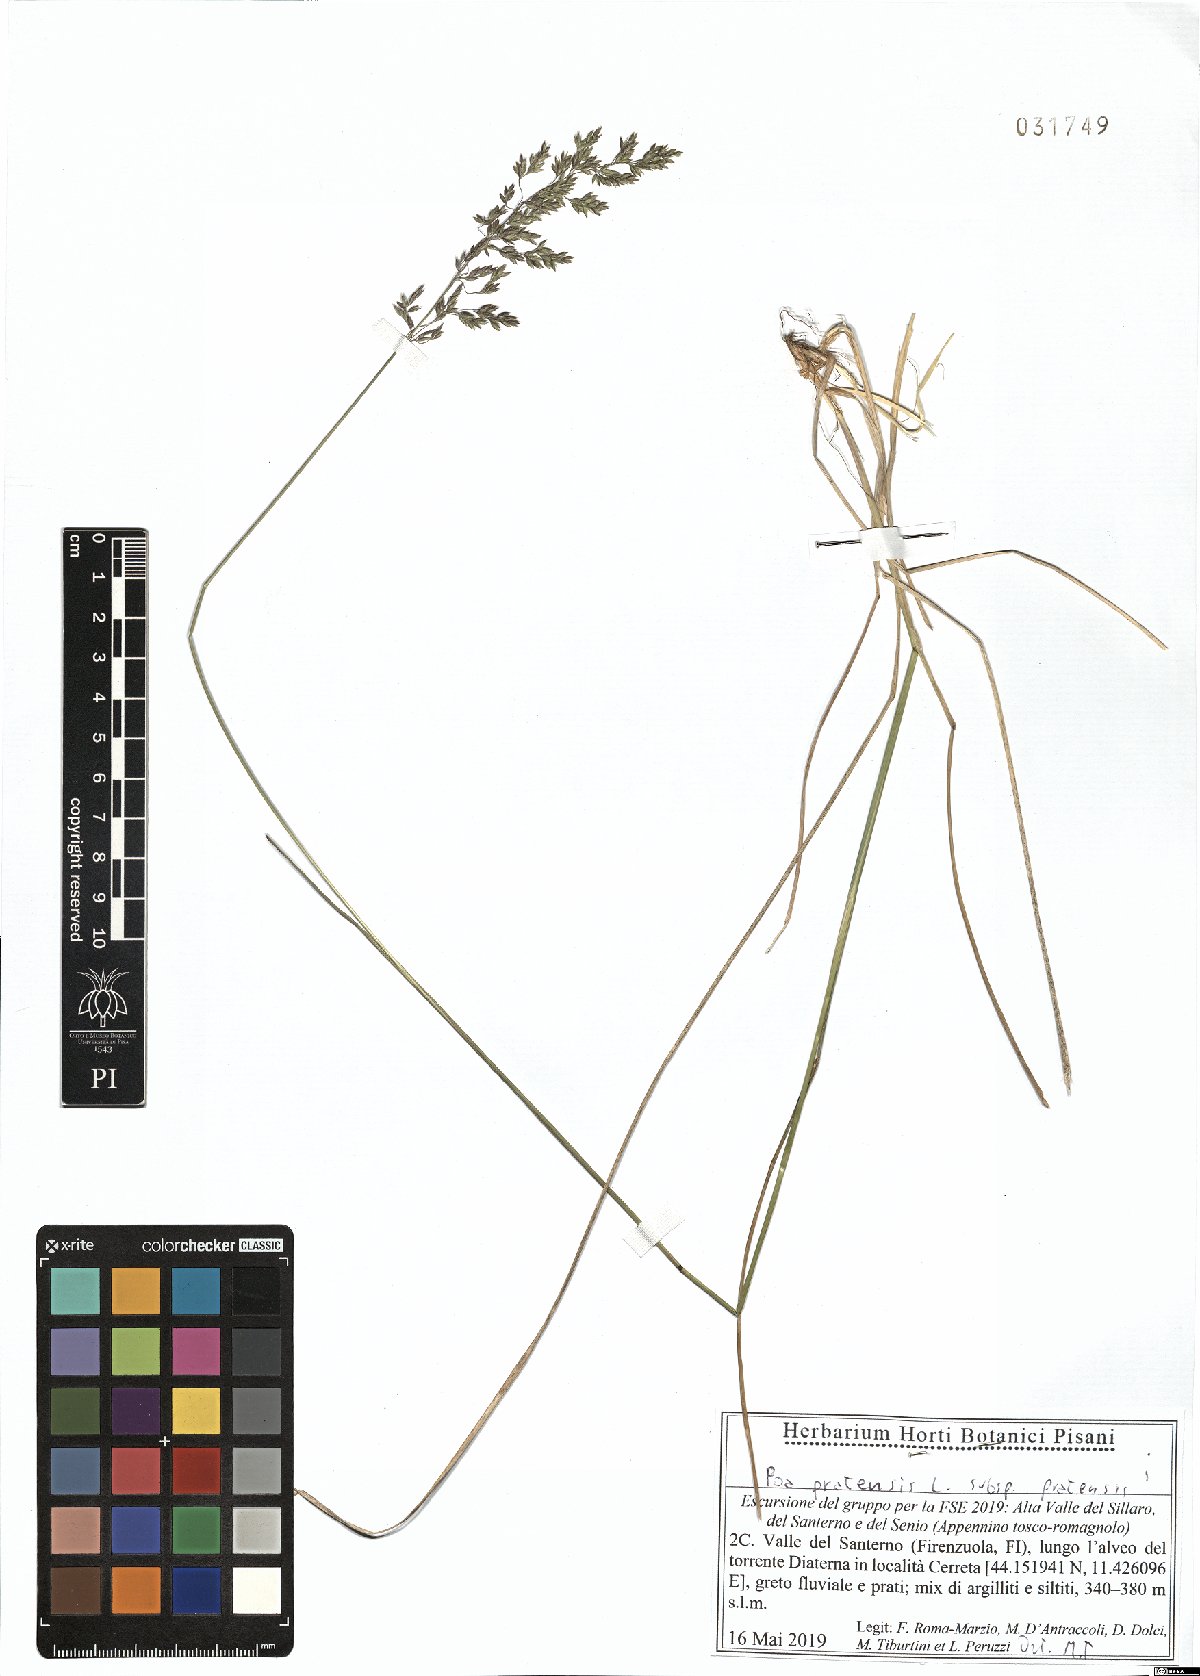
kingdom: Plantae
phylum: Tracheophyta
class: Liliopsida
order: Poales
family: Poaceae
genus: Poa
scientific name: Poa pratensis
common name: Kentucky bluegrass
